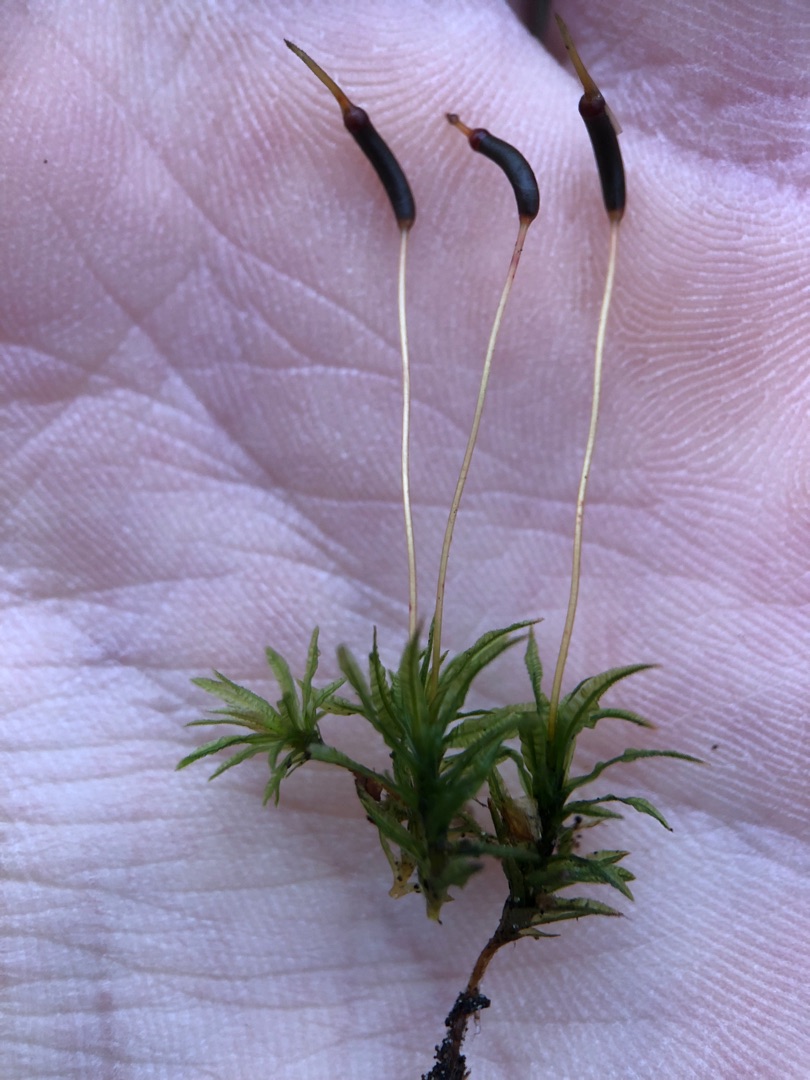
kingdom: Plantae
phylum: Bryophyta
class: Polytrichopsida
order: Polytrichales
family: Polytrichaceae
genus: Atrichum
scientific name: Atrichum undulatum
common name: Bølget katrinemos
